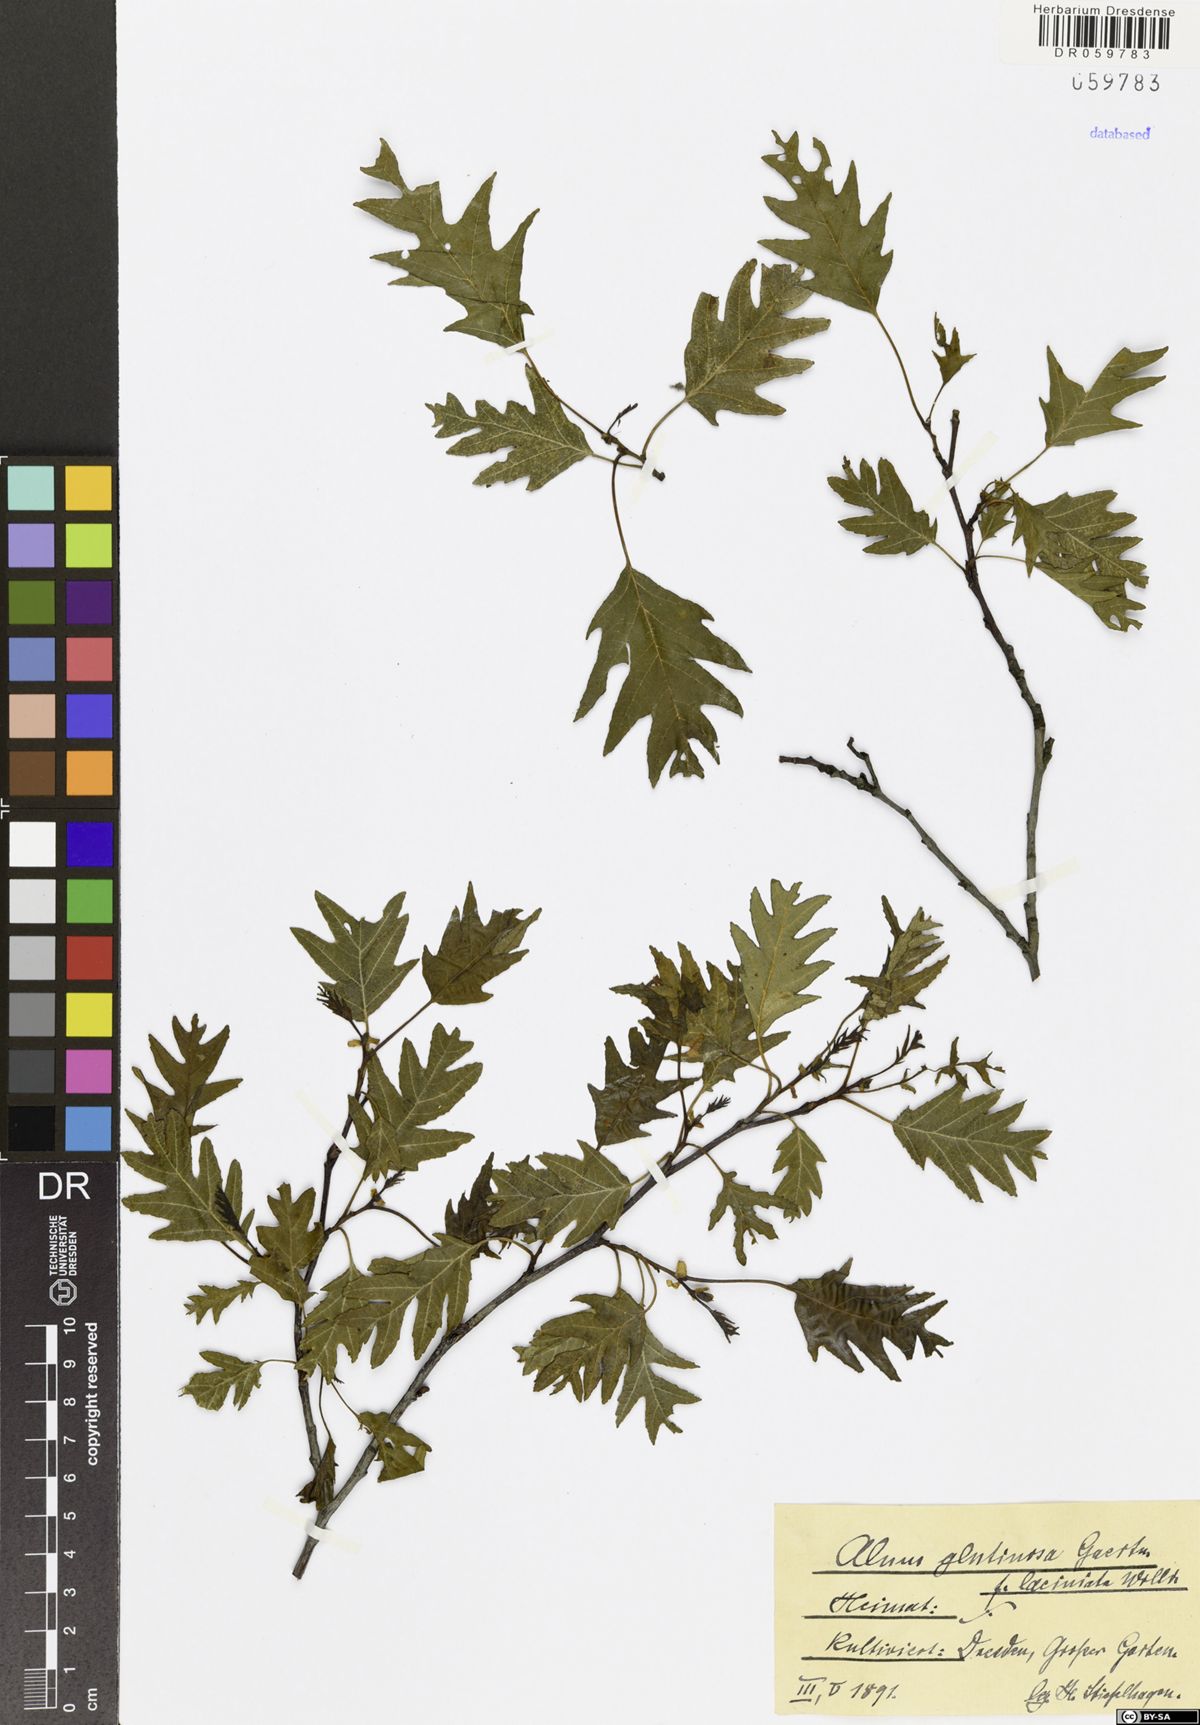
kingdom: Plantae
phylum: Tracheophyta
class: Magnoliopsida
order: Fagales
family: Betulaceae
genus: Alnus
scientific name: Alnus glutinosa
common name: Black alder
